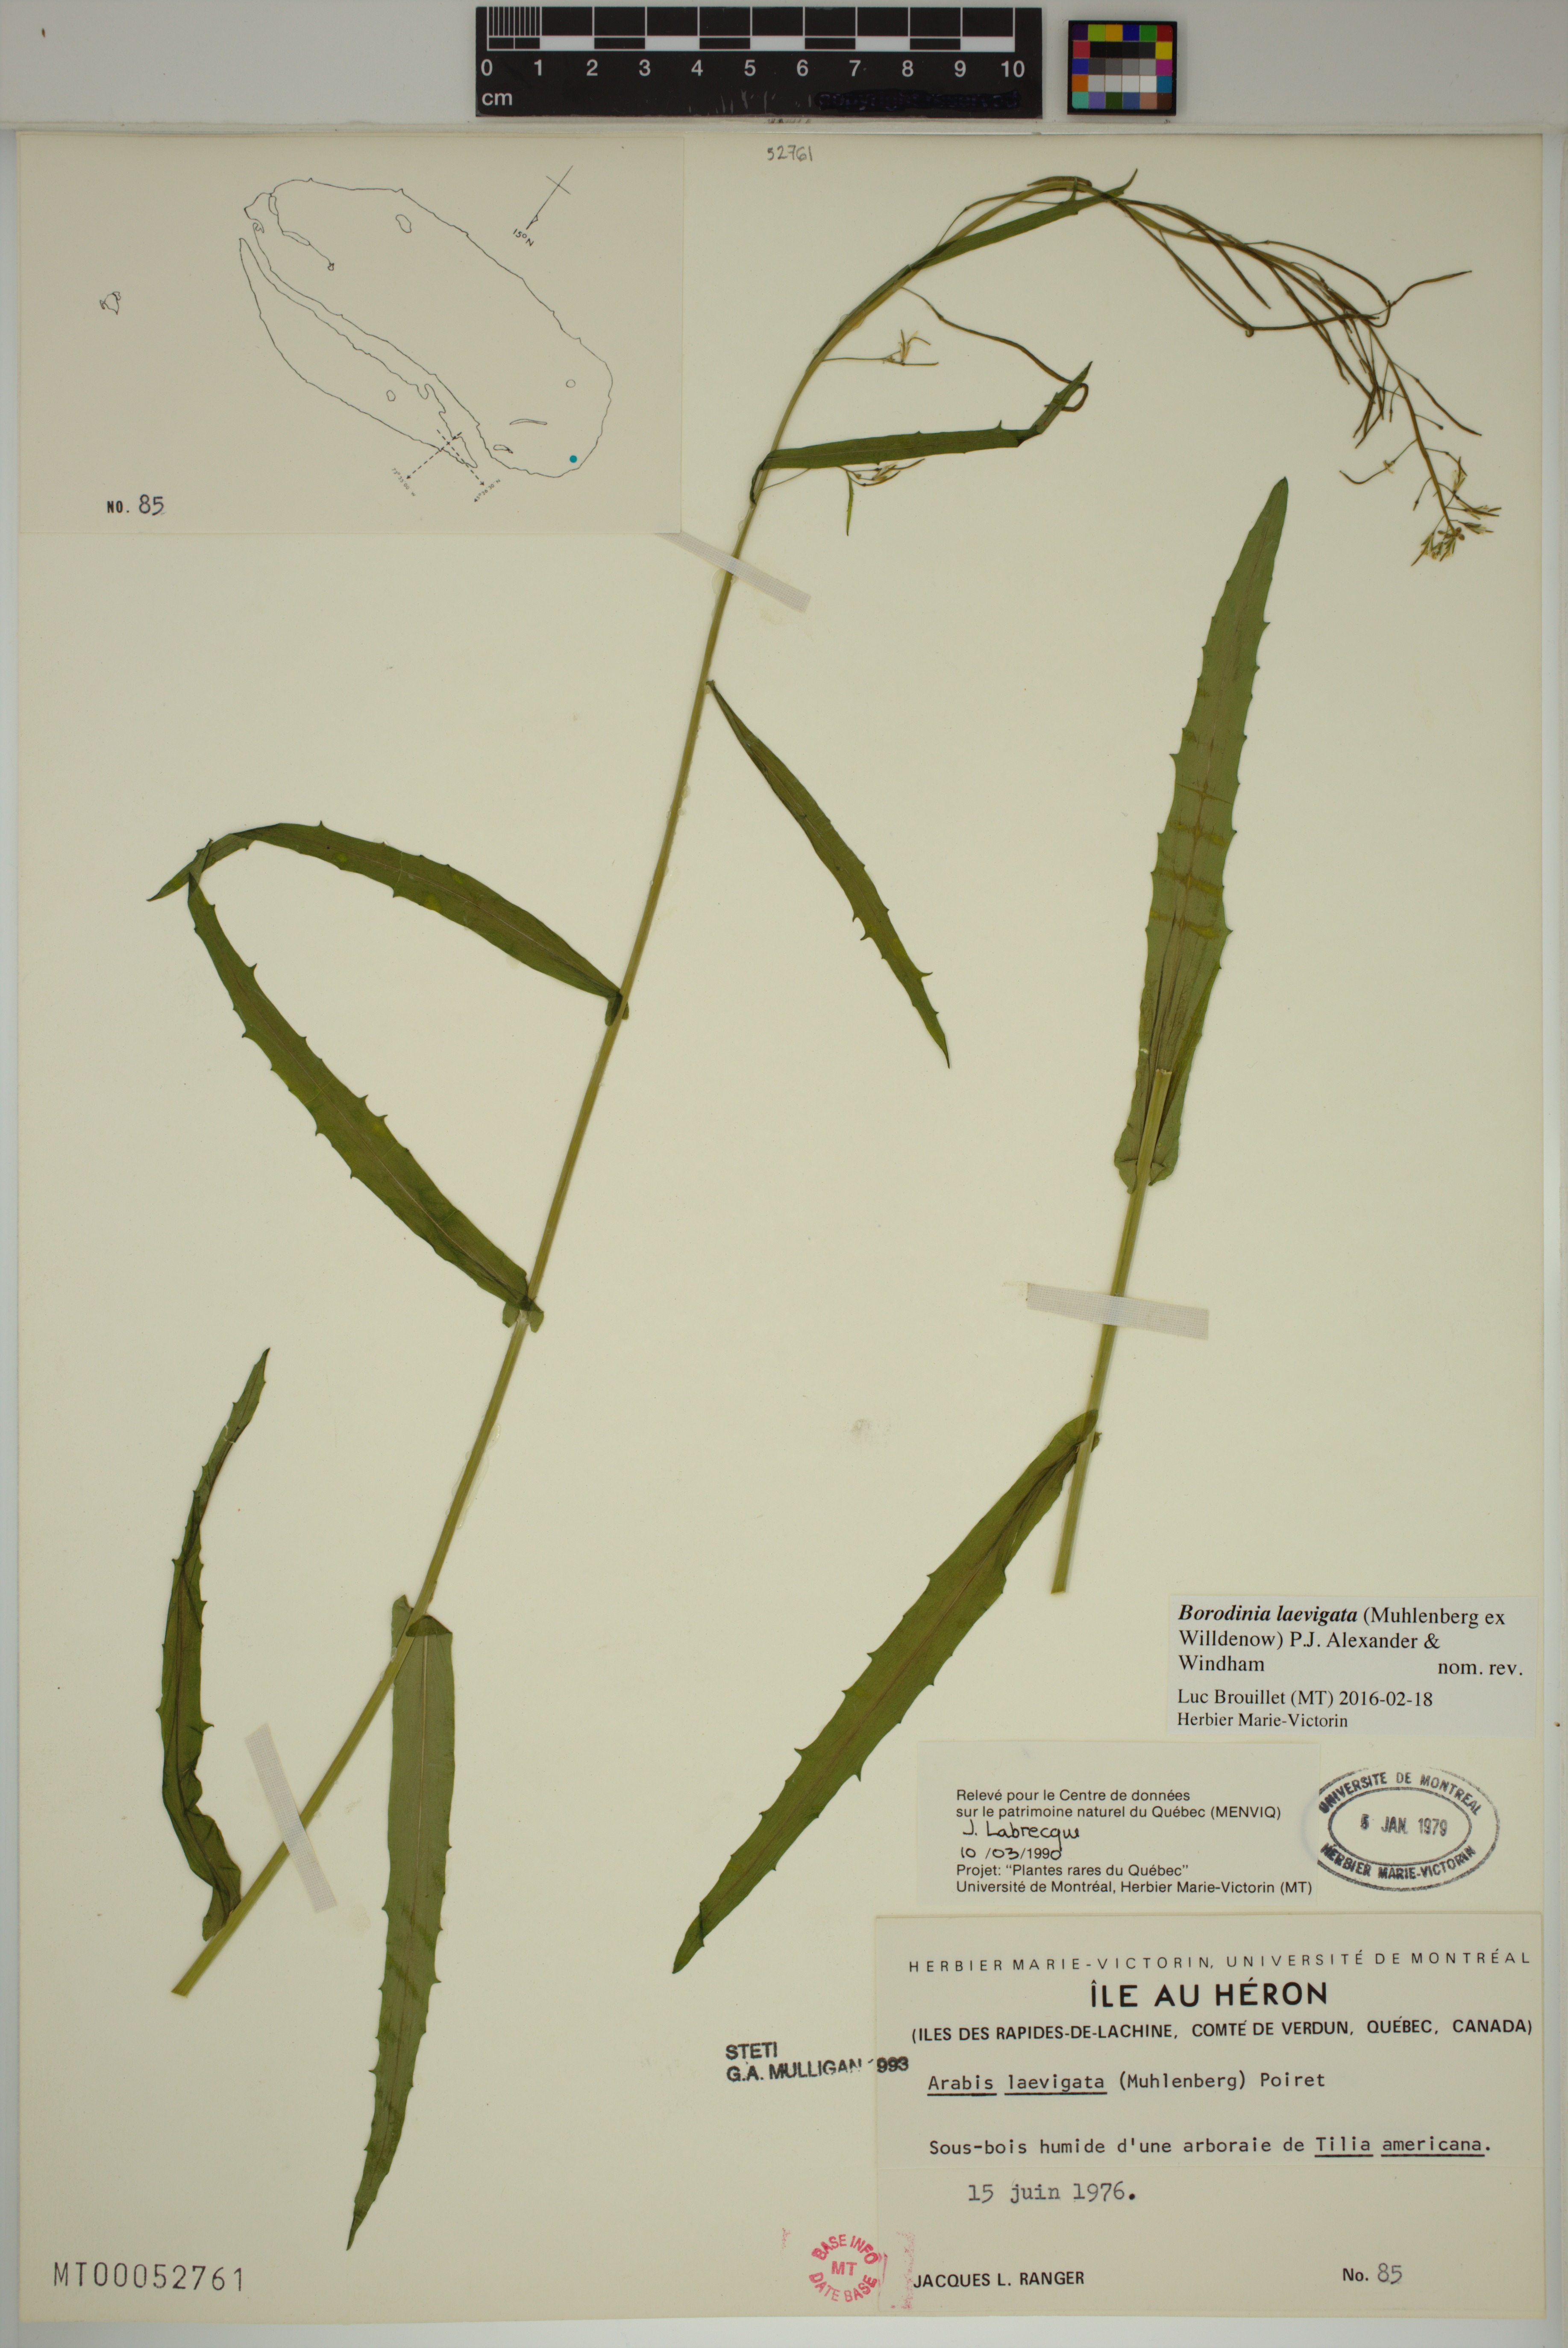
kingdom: Plantae
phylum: Tracheophyta
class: Magnoliopsida
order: Brassicales
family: Brassicaceae
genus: Borodinia
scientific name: Borodinia laevigata
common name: Smooth rockcress
